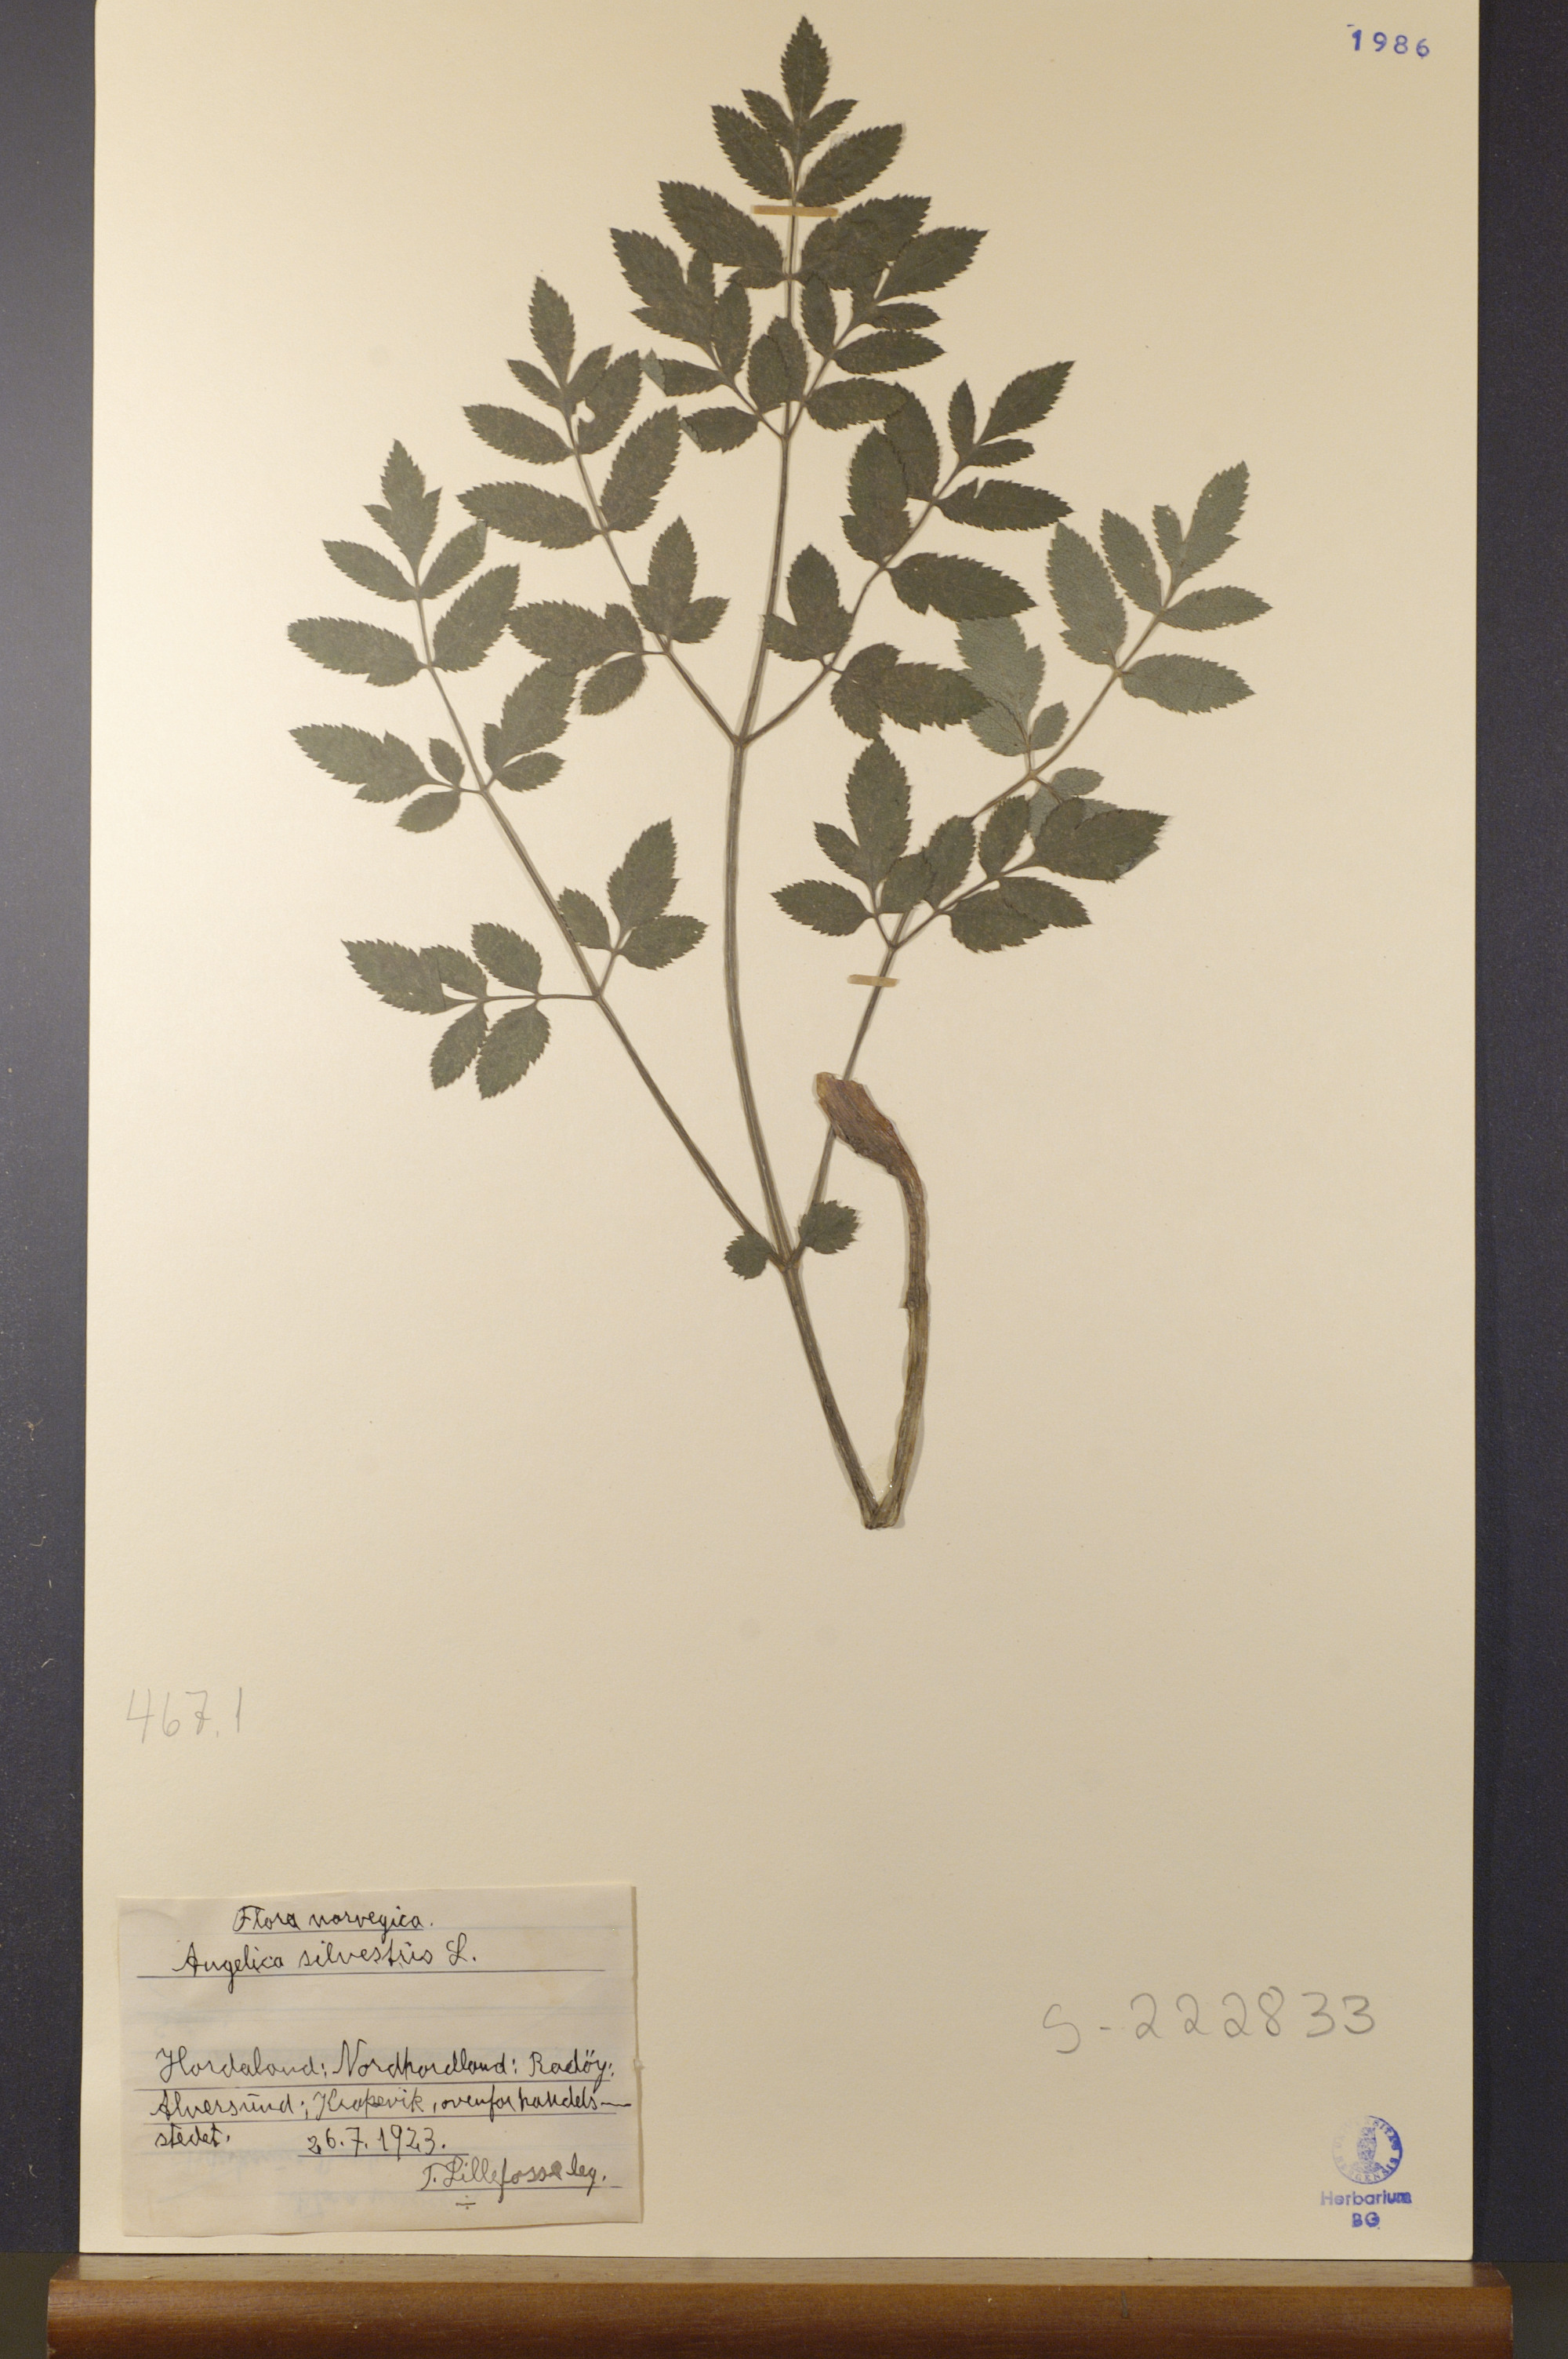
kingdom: Plantae
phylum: Tracheophyta
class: Magnoliopsida
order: Apiales
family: Apiaceae
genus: Angelica
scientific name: Angelica sylvestris
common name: Wild angelica
